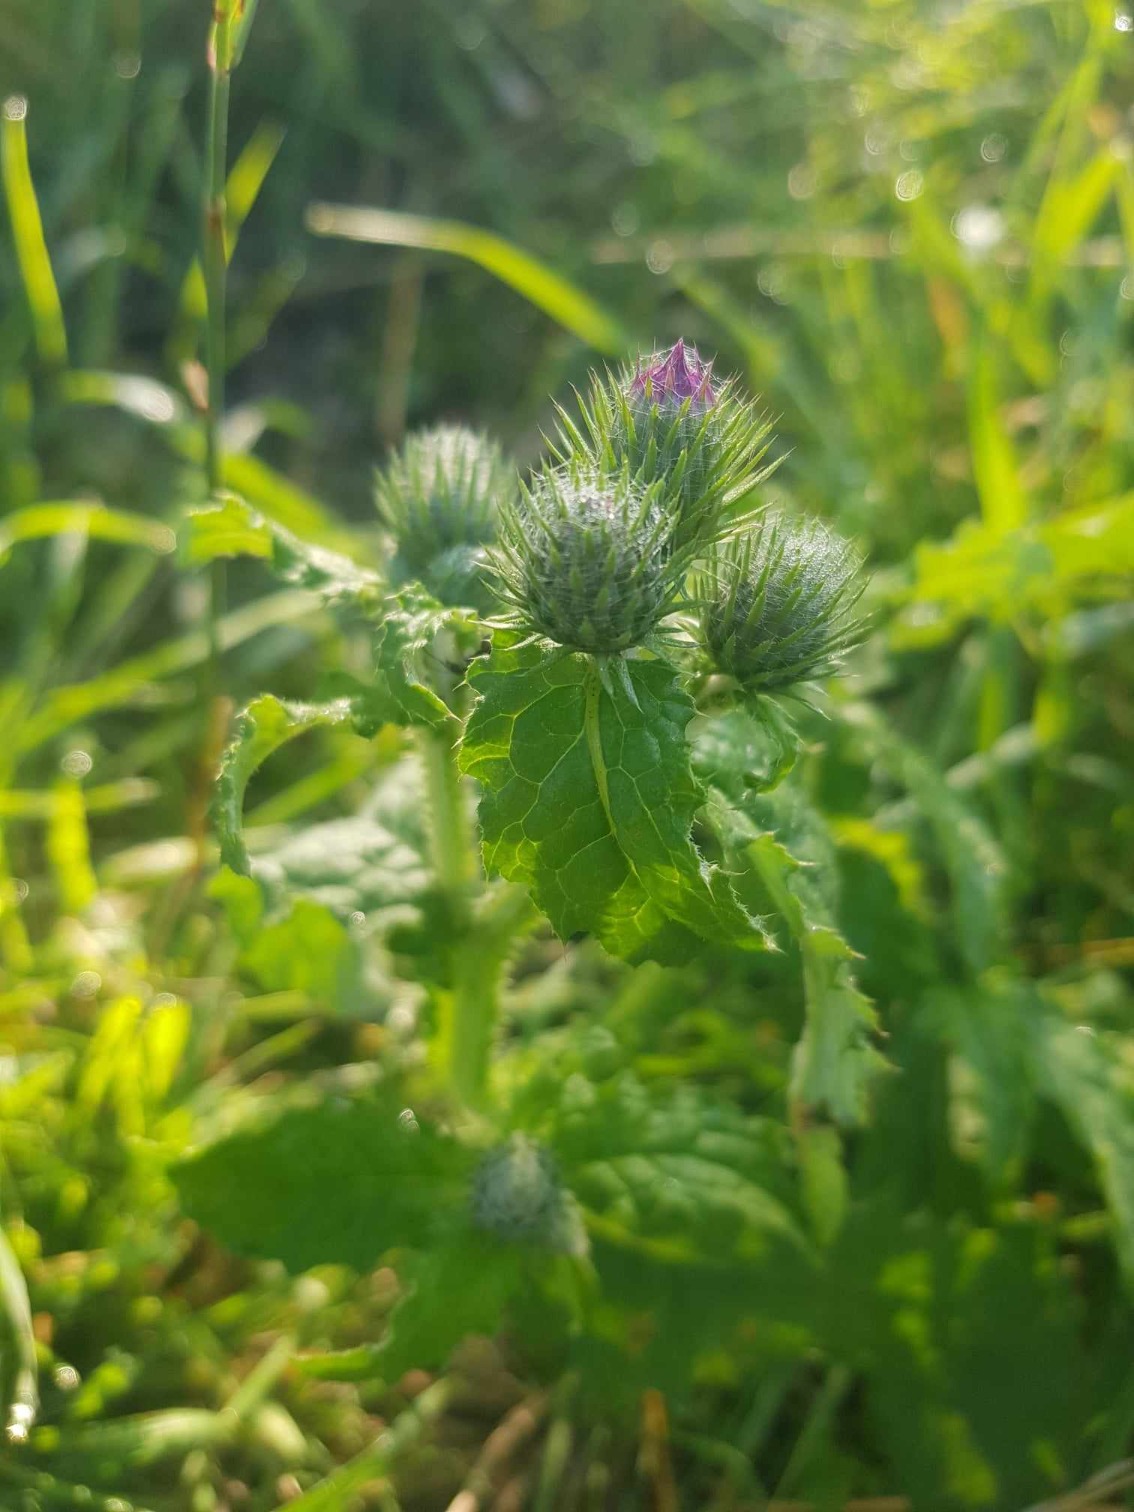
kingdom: Plantae
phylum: Tracheophyta
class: Magnoliopsida
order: Asterales
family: Asteraceae
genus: Carduus
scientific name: Carduus crispus
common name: Kruset tidsel
